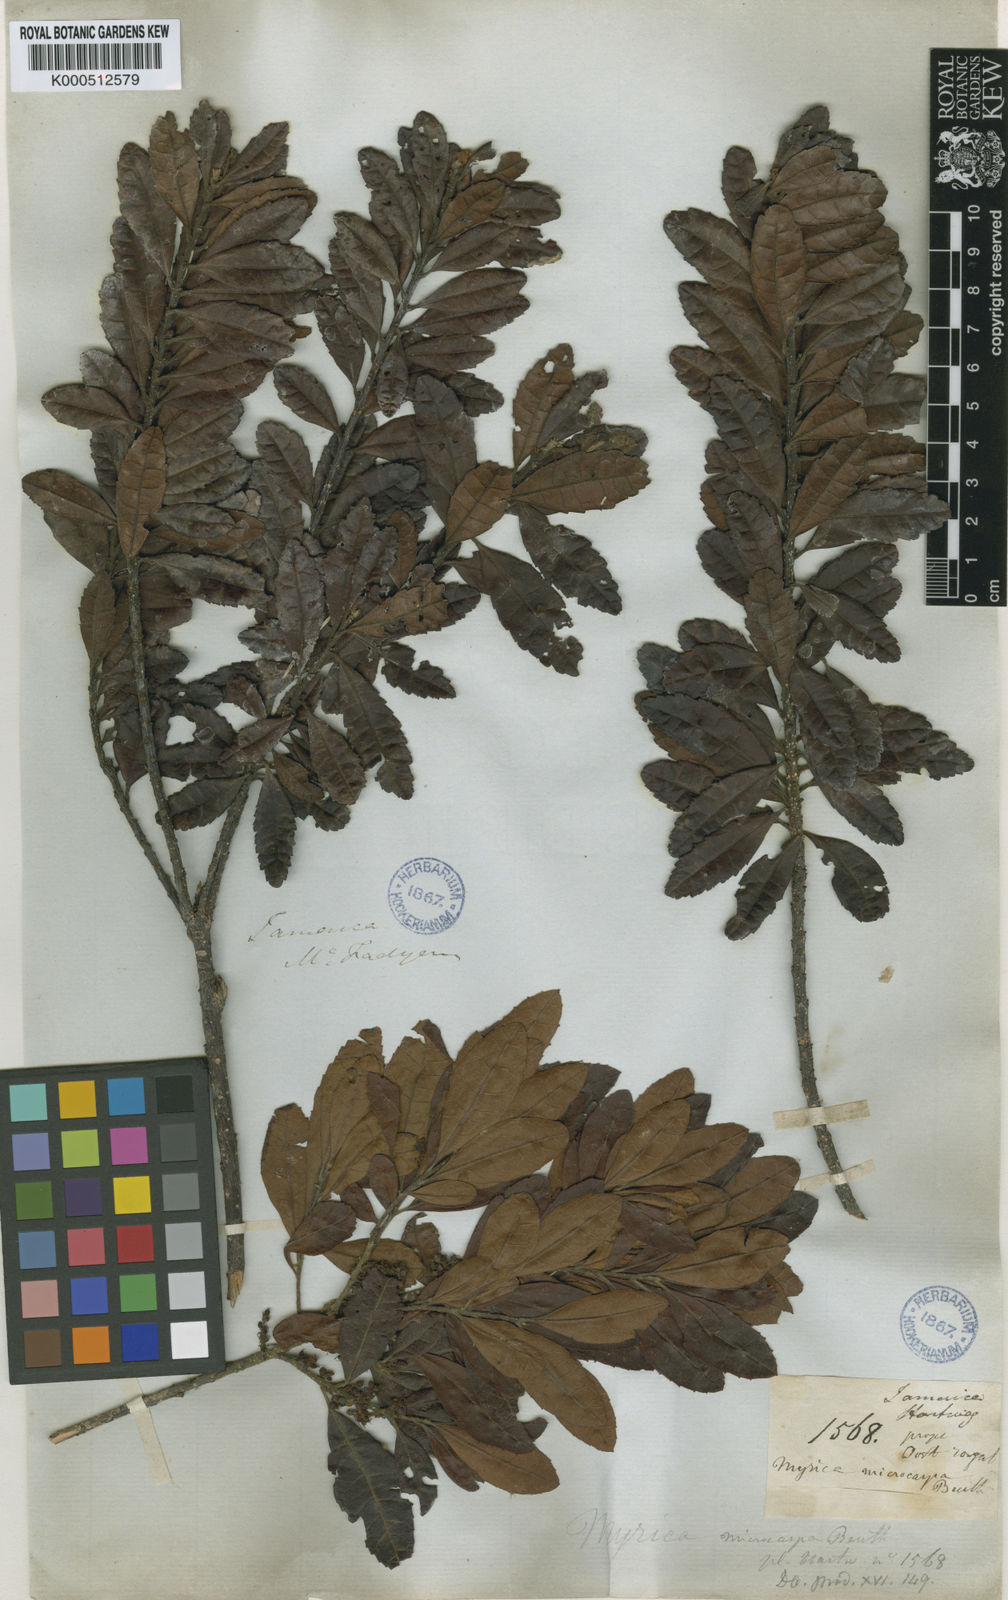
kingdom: Plantae
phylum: Tracheophyta
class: Magnoliopsida
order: Fagales
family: Myricaceae
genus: Morella
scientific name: Morella cerifera
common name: Wax myrtle
